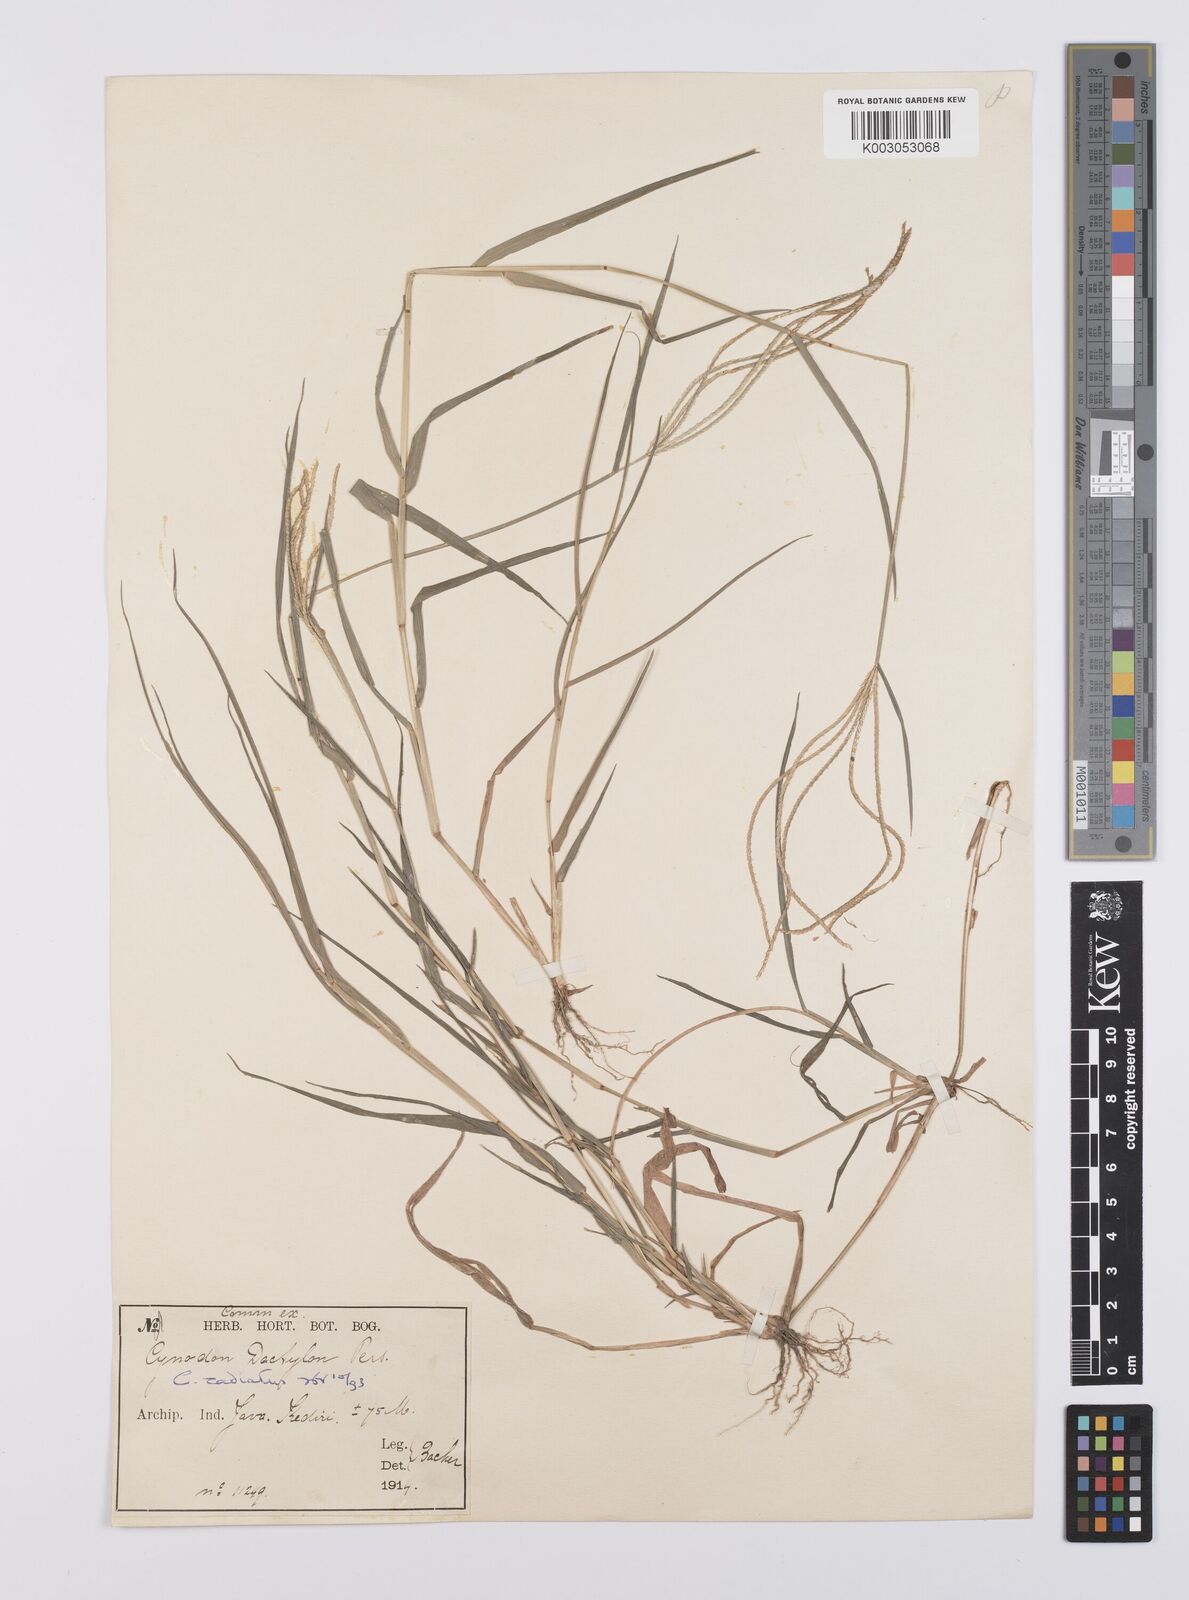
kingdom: Plantae
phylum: Tracheophyta
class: Liliopsida
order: Poales
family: Poaceae
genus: Cynodon
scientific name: Cynodon radiatus
